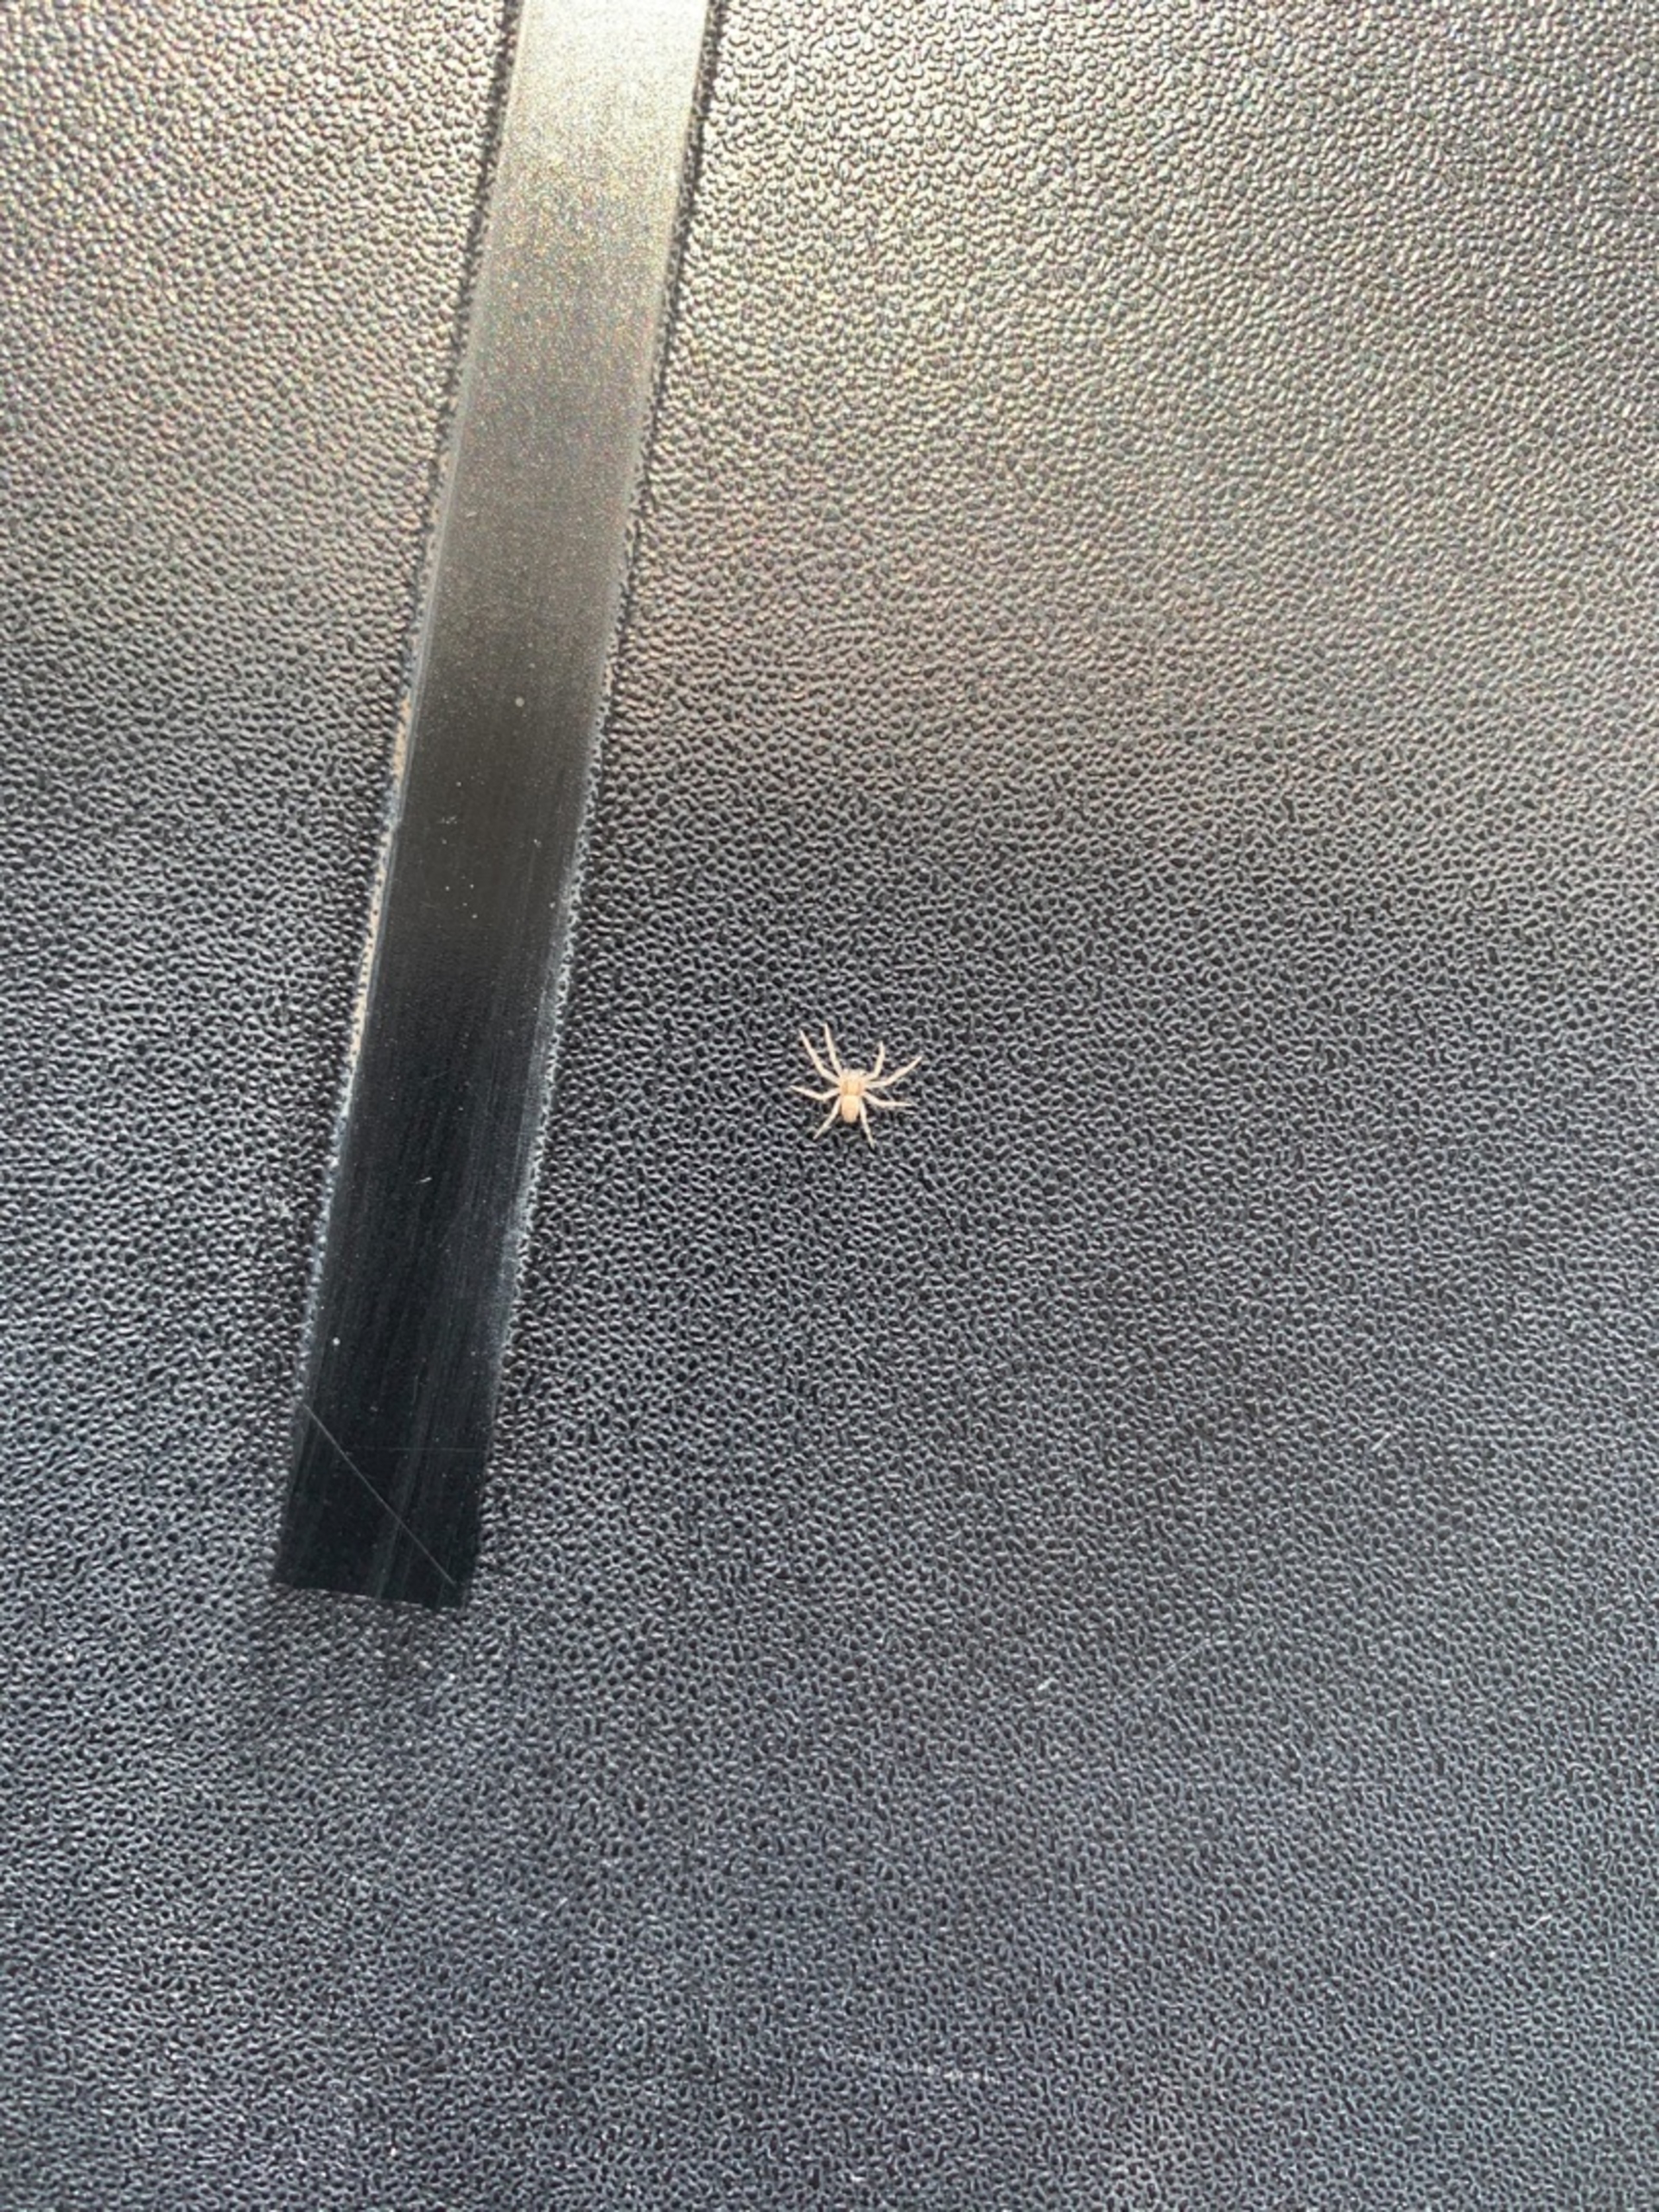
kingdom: Animalia
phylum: Arthropoda
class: Arachnida
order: Araneae
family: Philodromidae
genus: Philodromus
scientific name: Philodromus
